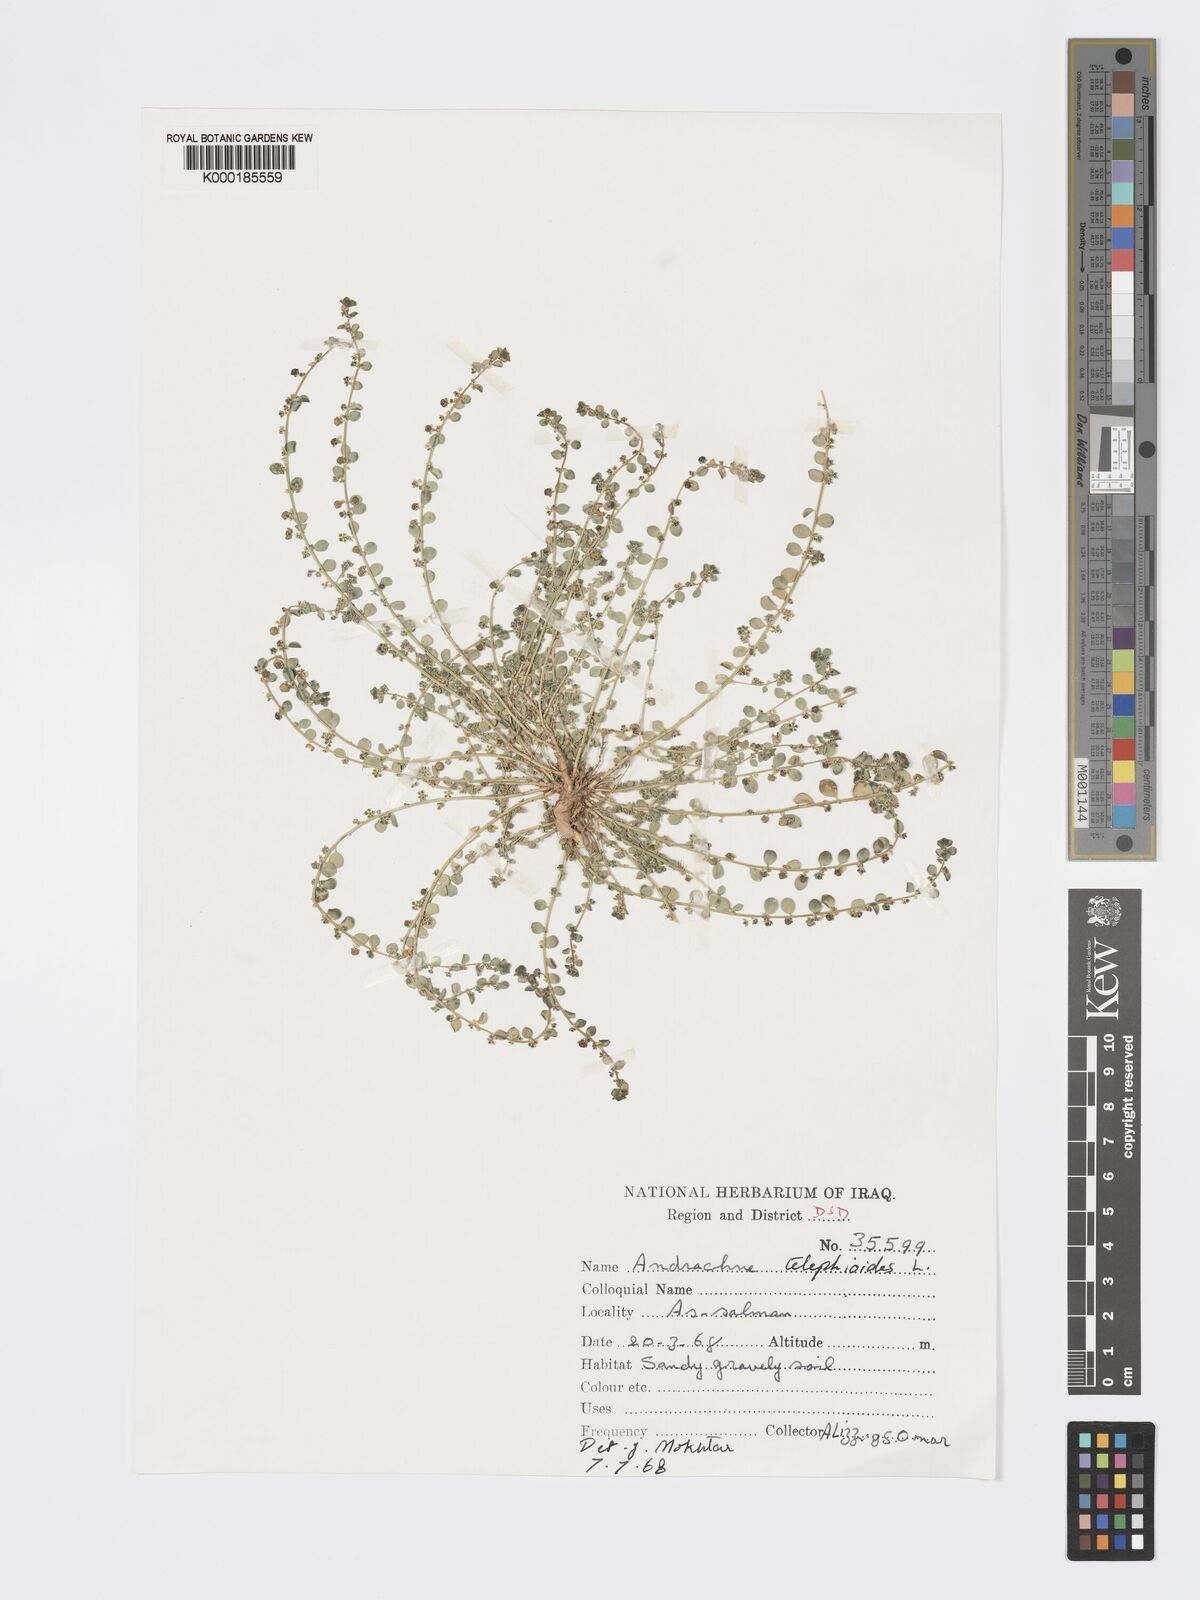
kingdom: Plantae
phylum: Tracheophyta
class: Magnoliopsida
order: Malpighiales
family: Phyllanthaceae
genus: Andrachne
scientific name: Andrachne telephioides
